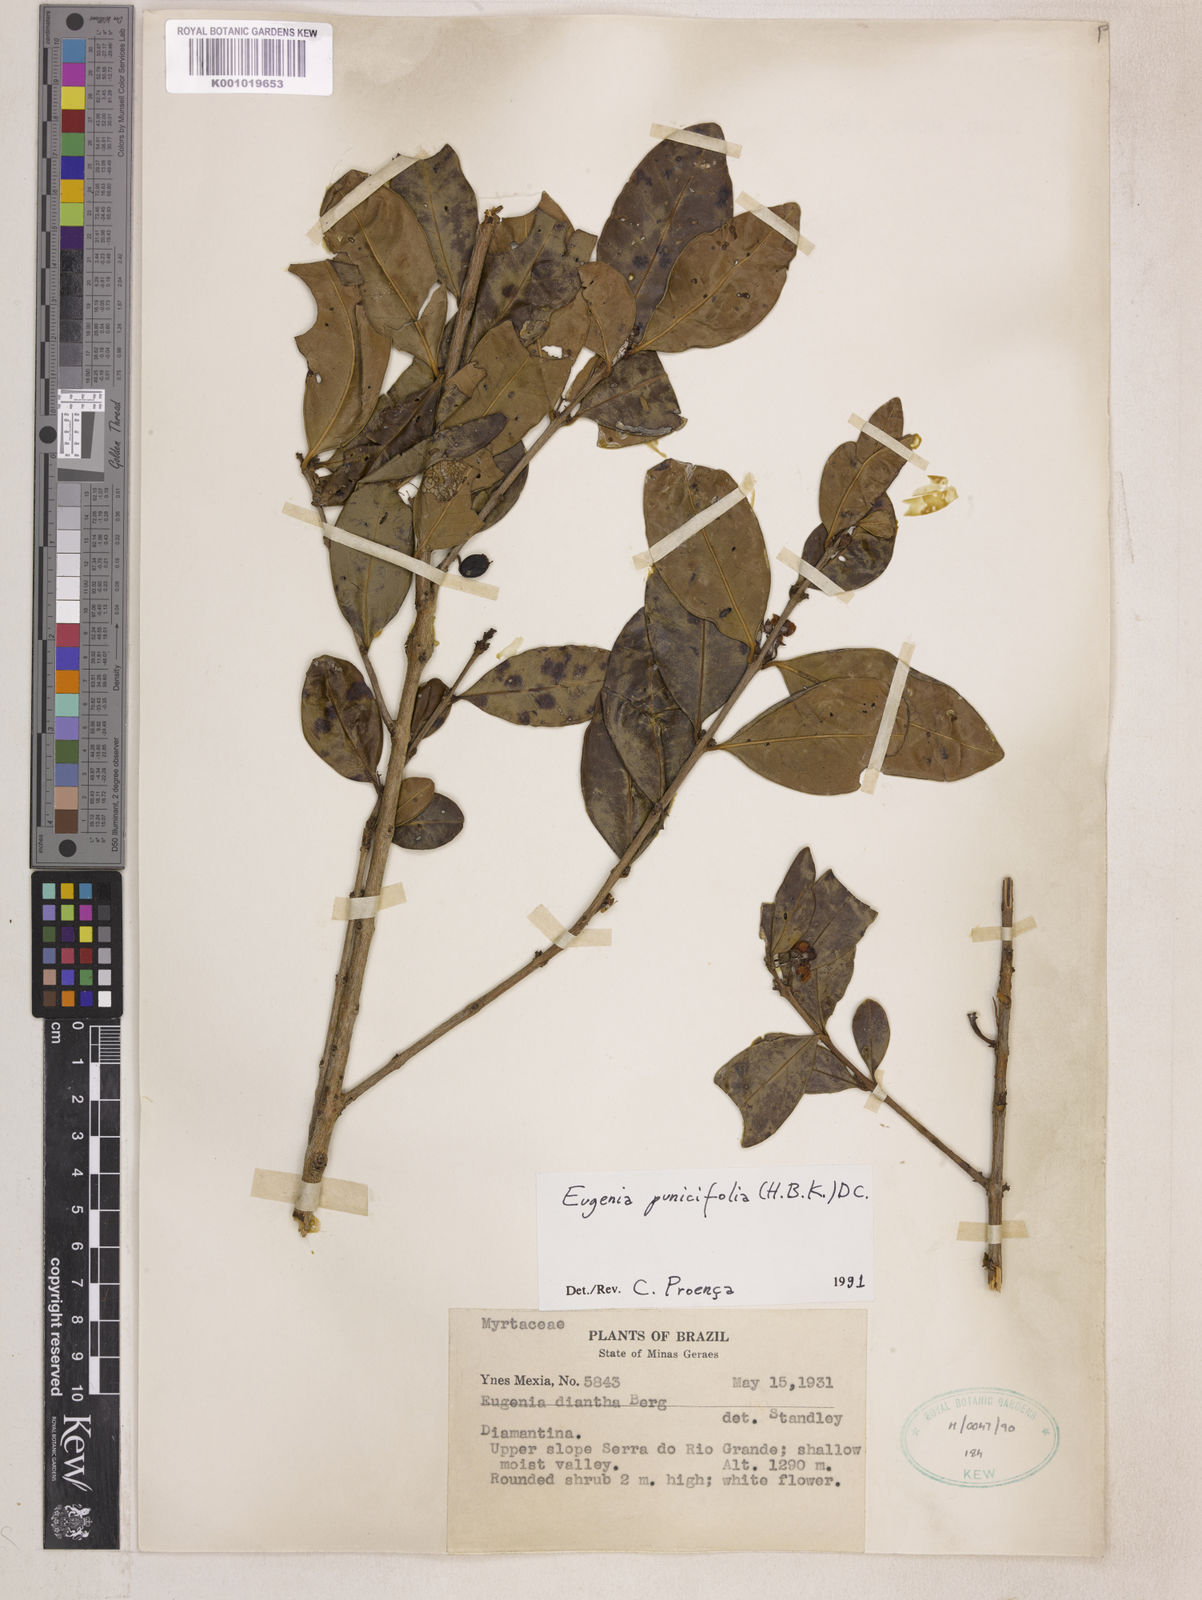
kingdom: Plantae
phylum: Tracheophyta
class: Magnoliopsida
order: Myrtales
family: Myrtaceae
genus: Eugenia
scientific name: Eugenia punicifolia
